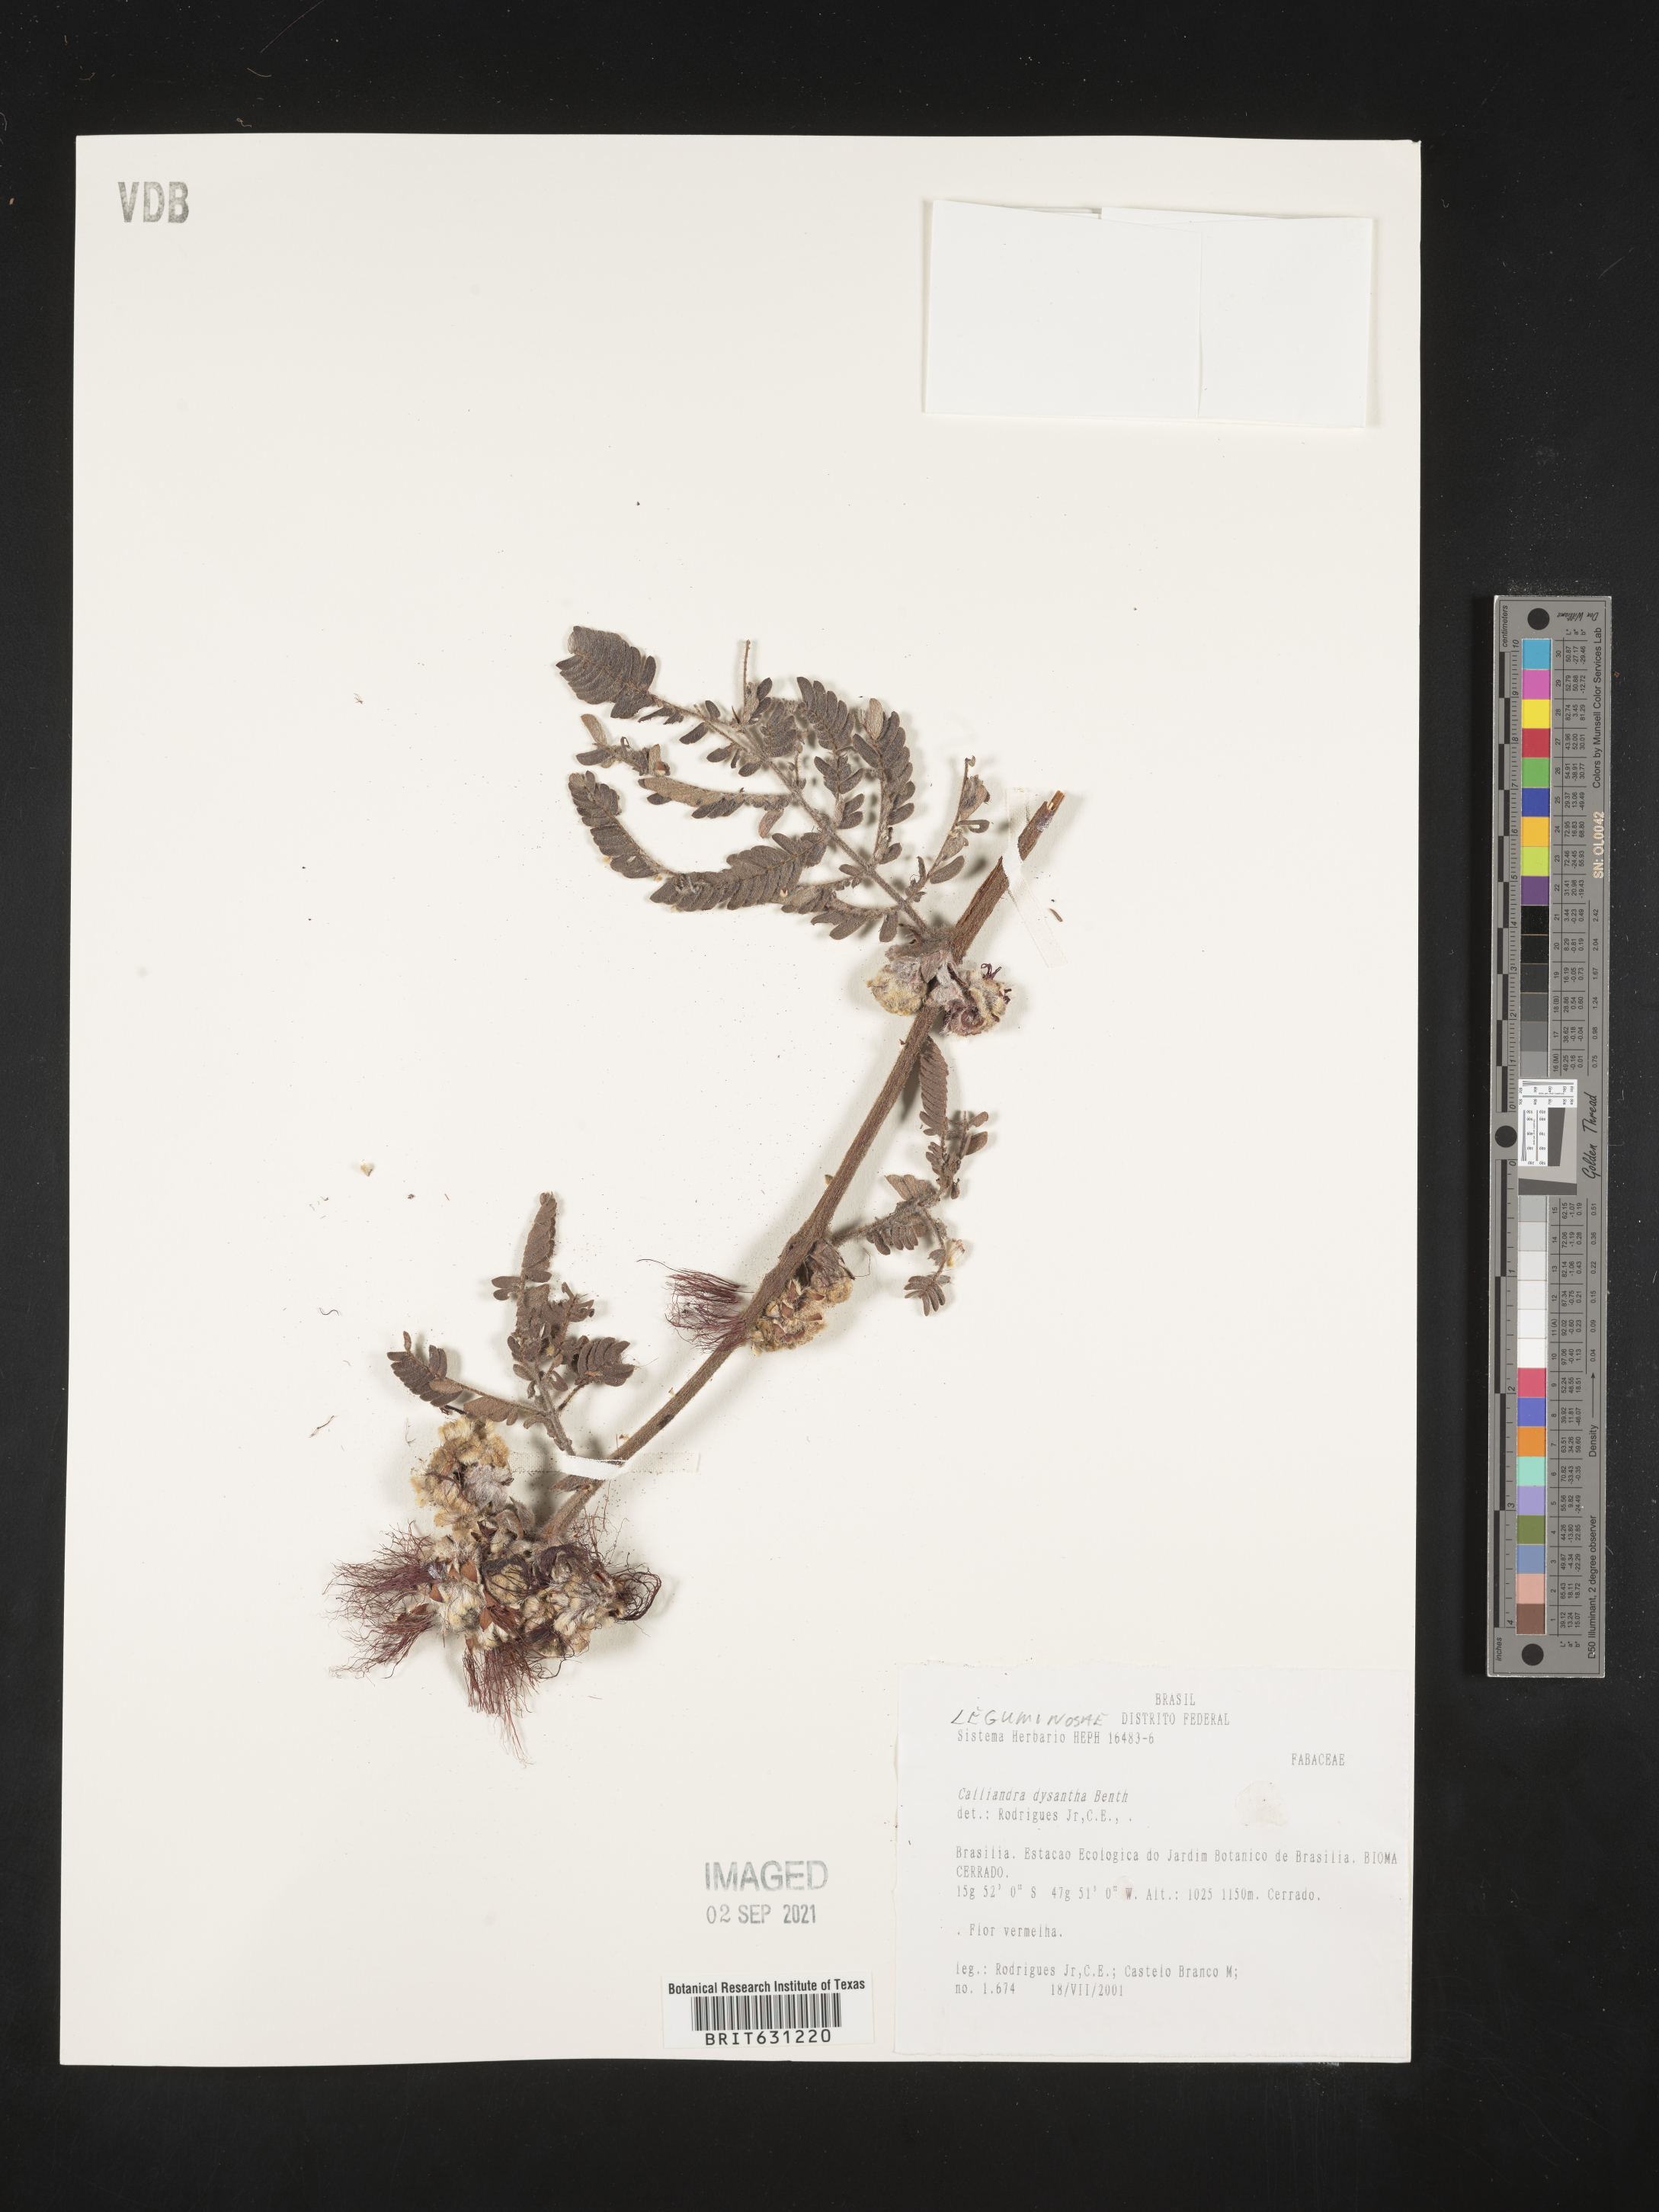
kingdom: Plantae
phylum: Tracheophyta
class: Magnoliopsida
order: Fabales
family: Fabaceae
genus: Calliandra
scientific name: Calliandra dysantha
